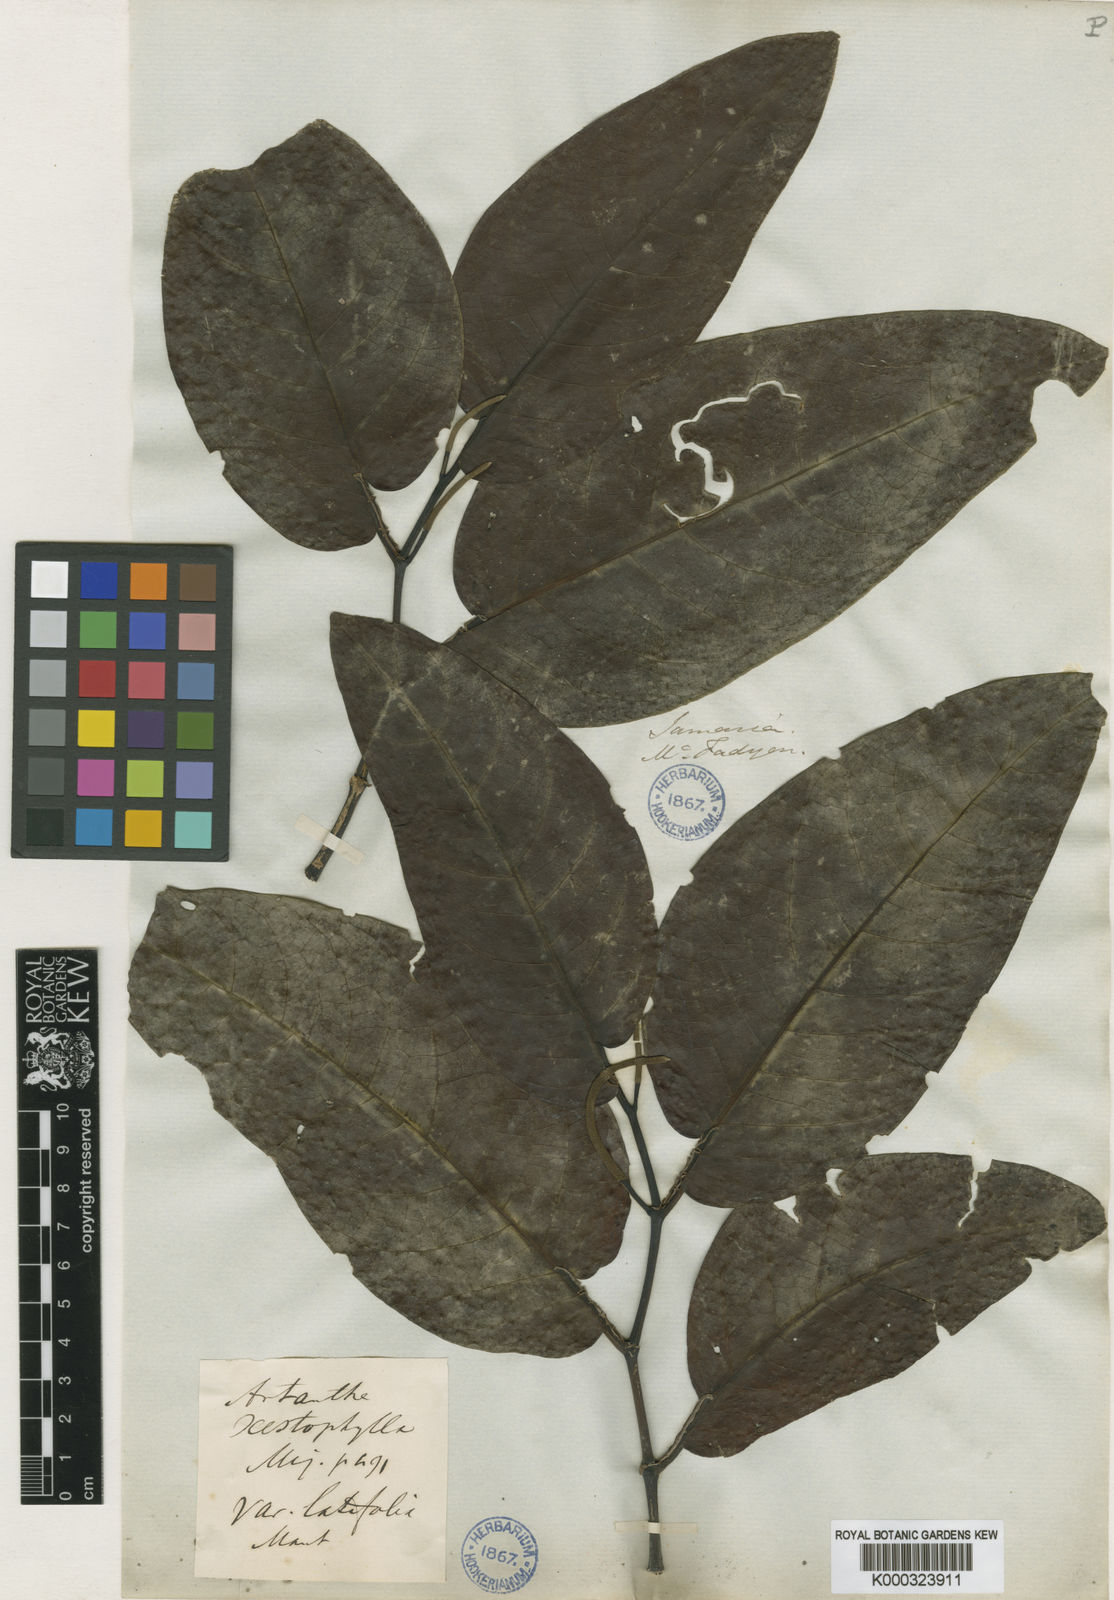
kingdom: Plantae
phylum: Tracheophyta
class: Magnoliopsida
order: Piperales
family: Piperaceae
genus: Piper
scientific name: Piper arboreum
